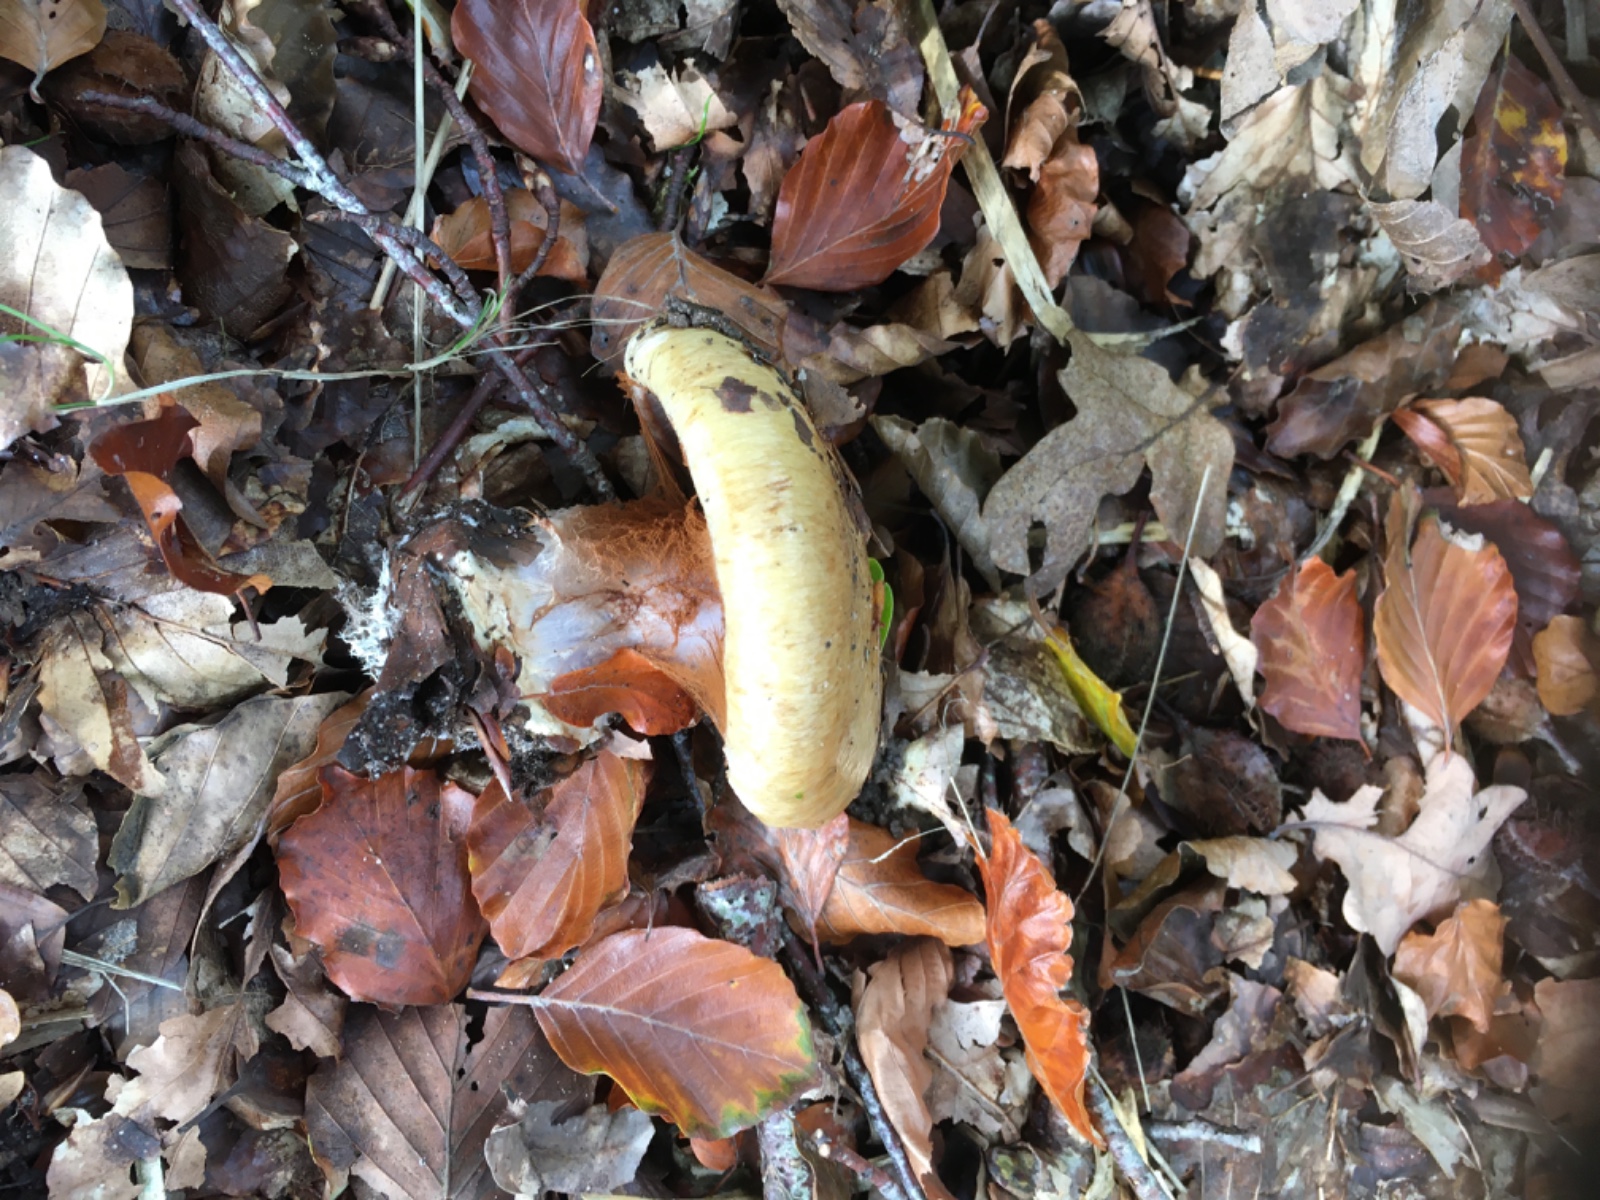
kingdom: Fungi
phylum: Basidiomycota
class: Agaricomycetes
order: Agaricales
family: Cortinariaceae
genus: Cortinarius
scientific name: Cortinarius anserinus
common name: bøge-slørhat
